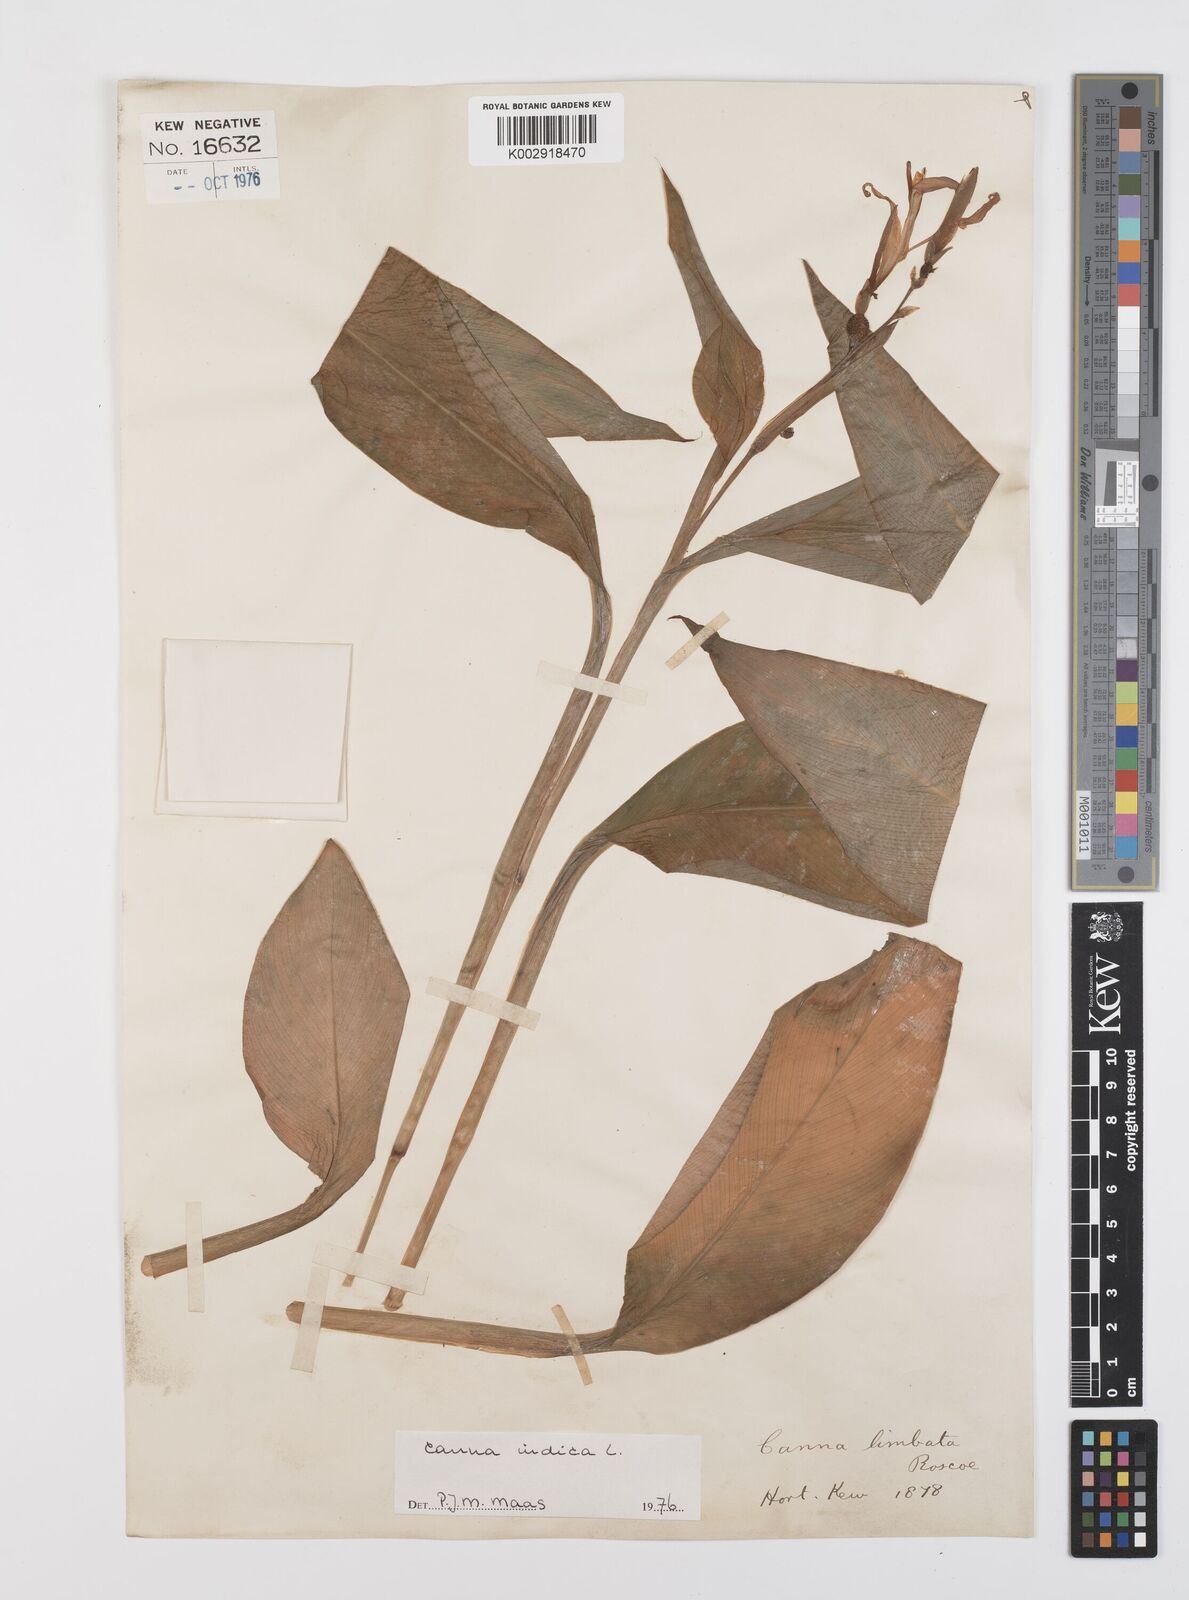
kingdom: Plantae
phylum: Tracheophyta
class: Liliopsida
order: Zingiberales
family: Cannaceae
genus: Canna
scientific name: Canna indica
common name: Indian shot
